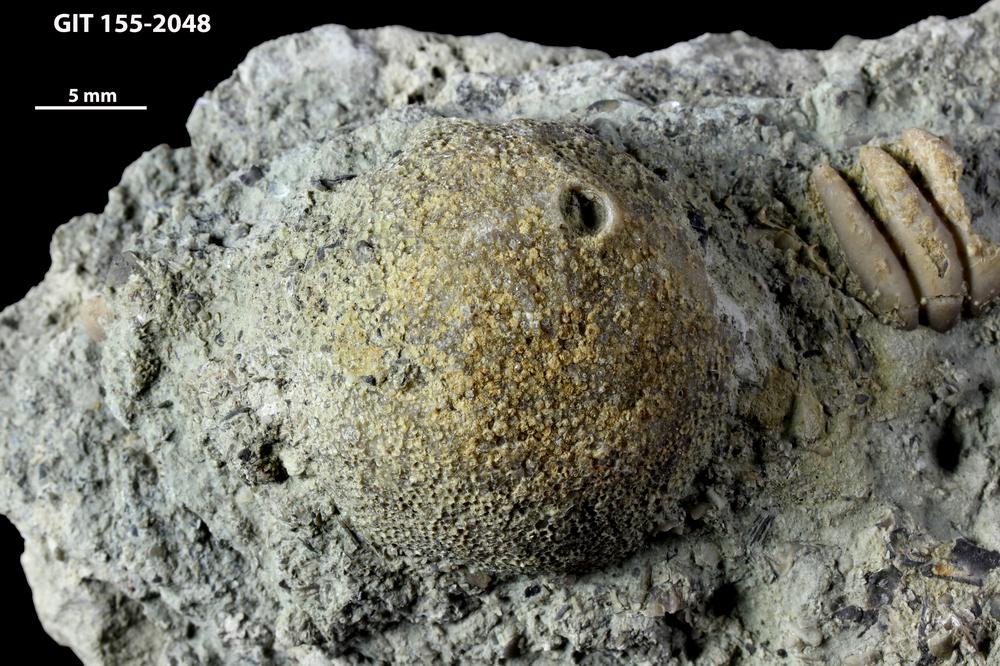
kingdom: Animalia
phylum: Bryozoa
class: Stenolaemata
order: Esthonioporata
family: Esthonioporidae
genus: Esthoniopora
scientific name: Esthoniopora communis
